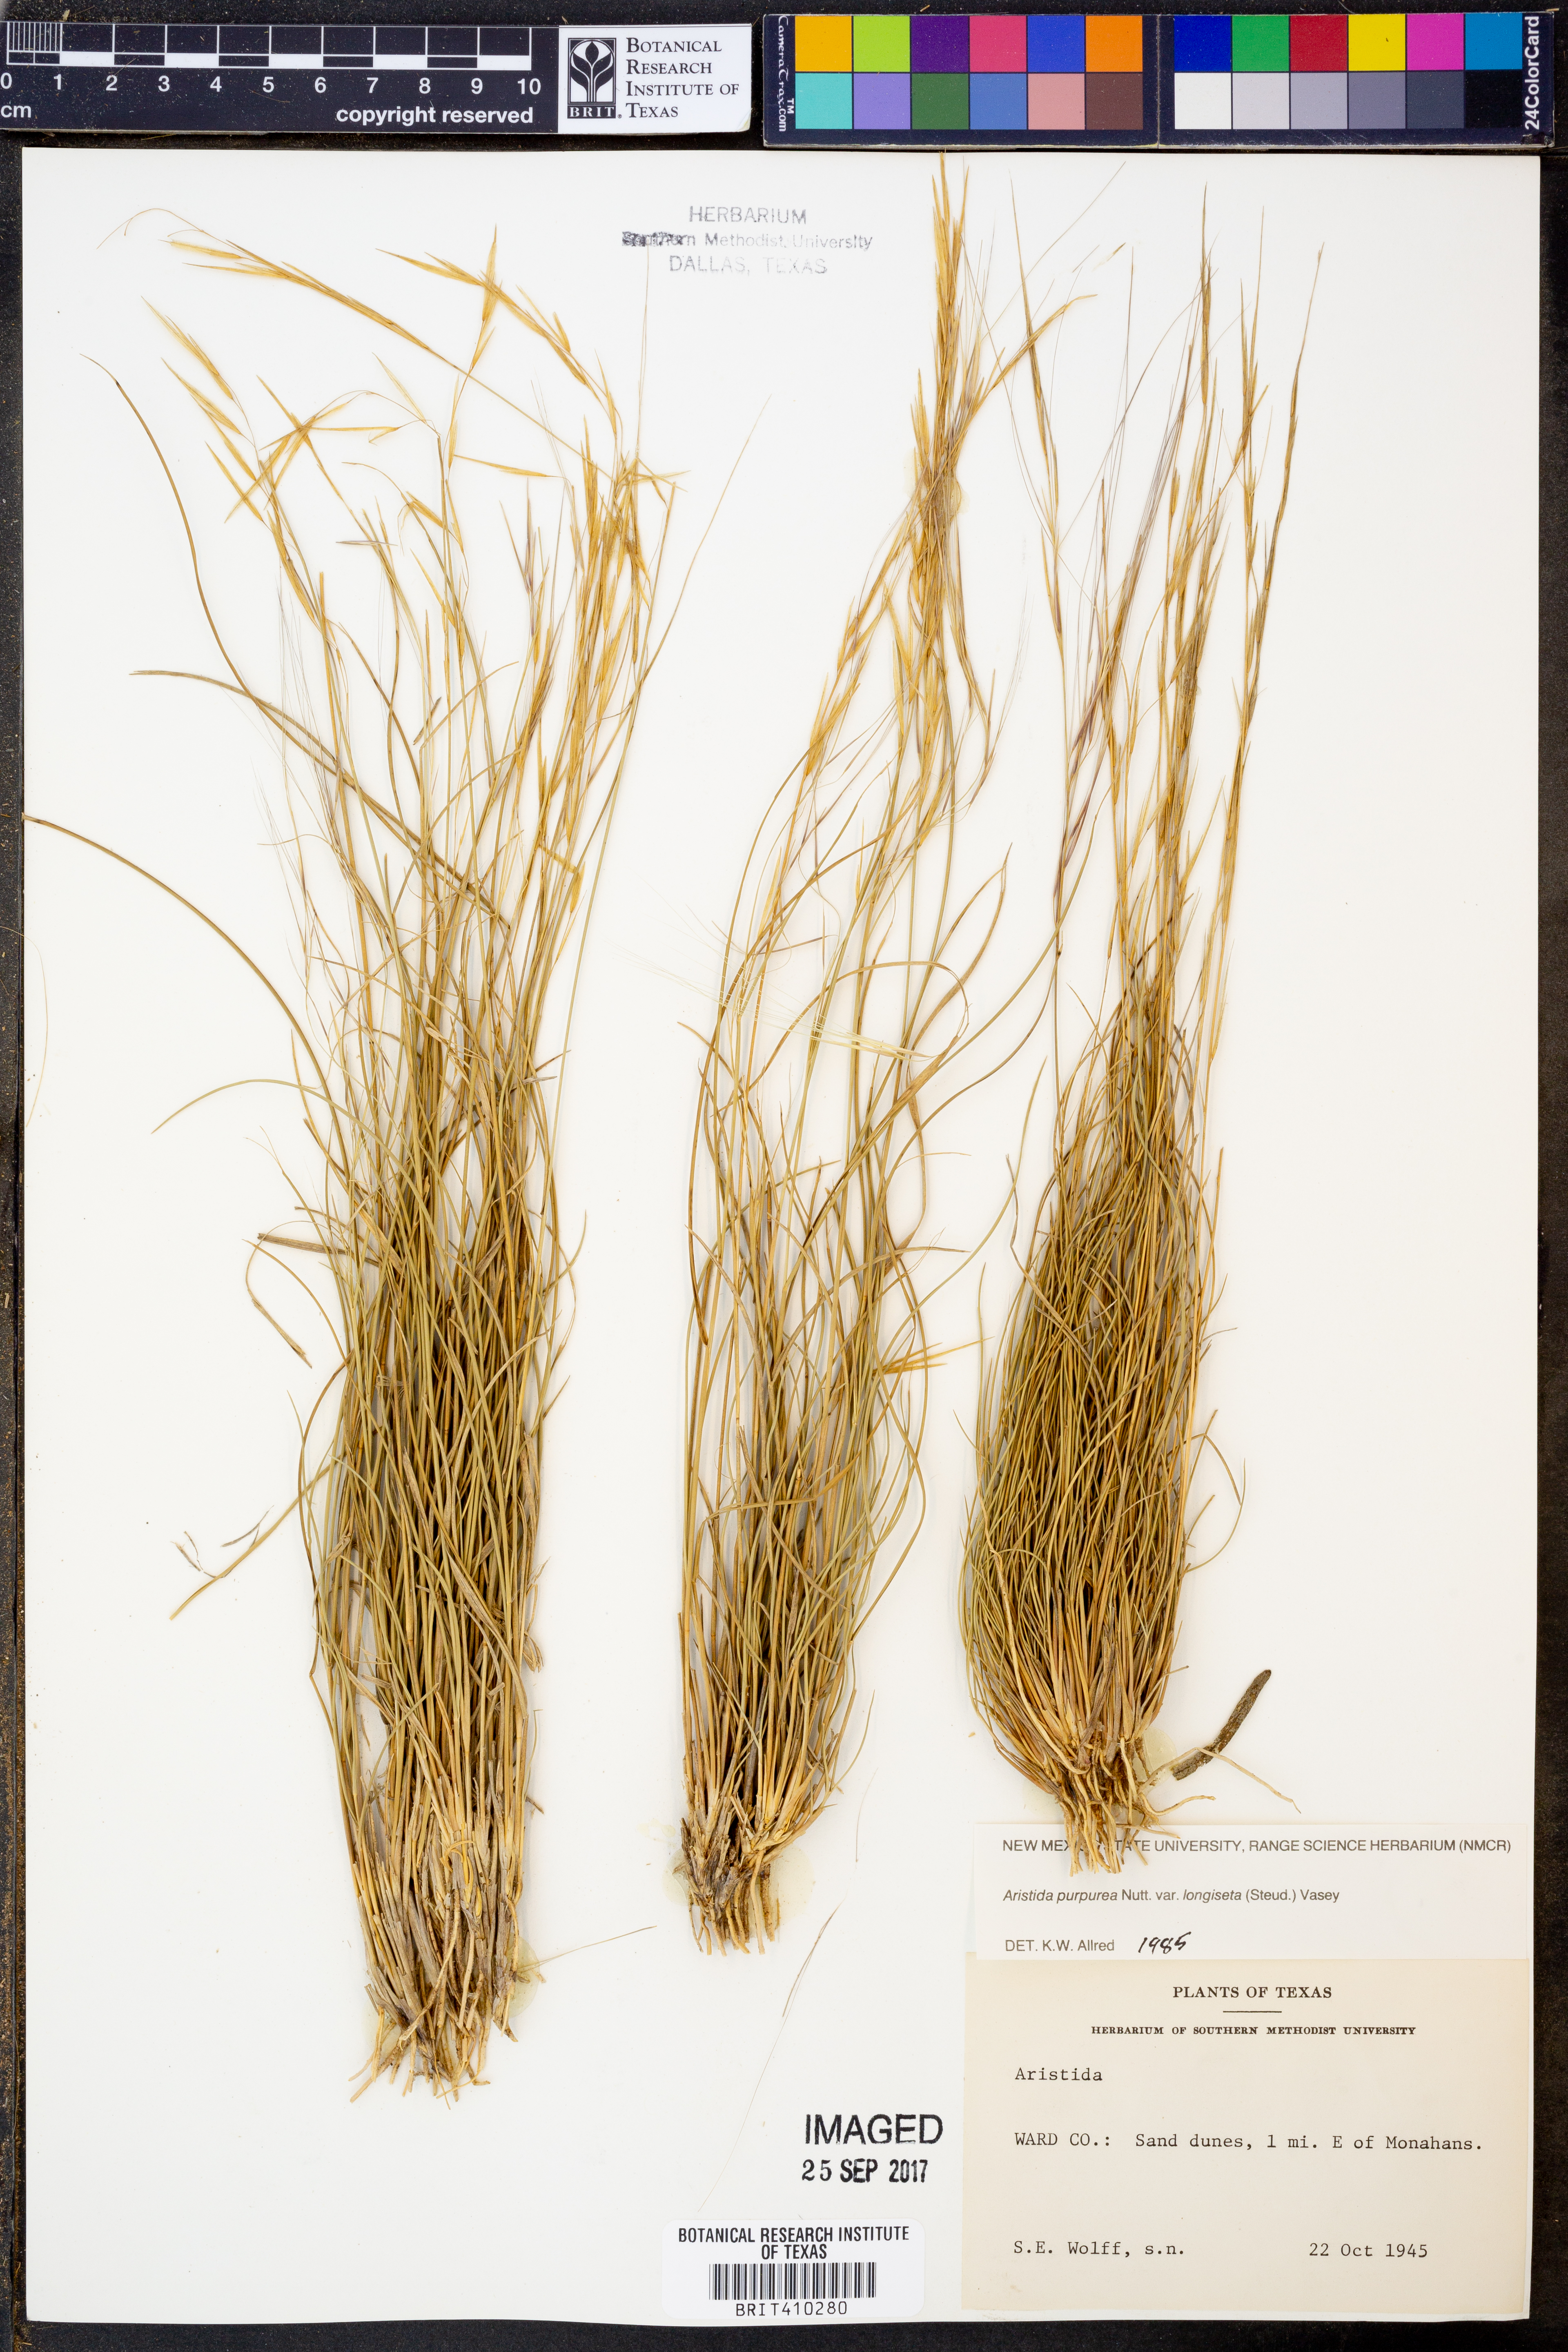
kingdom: Plantae
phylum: Tracheophyta
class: Liliopsida
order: Poales
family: Poaceae
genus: Aristida
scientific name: Aristida longiseta
